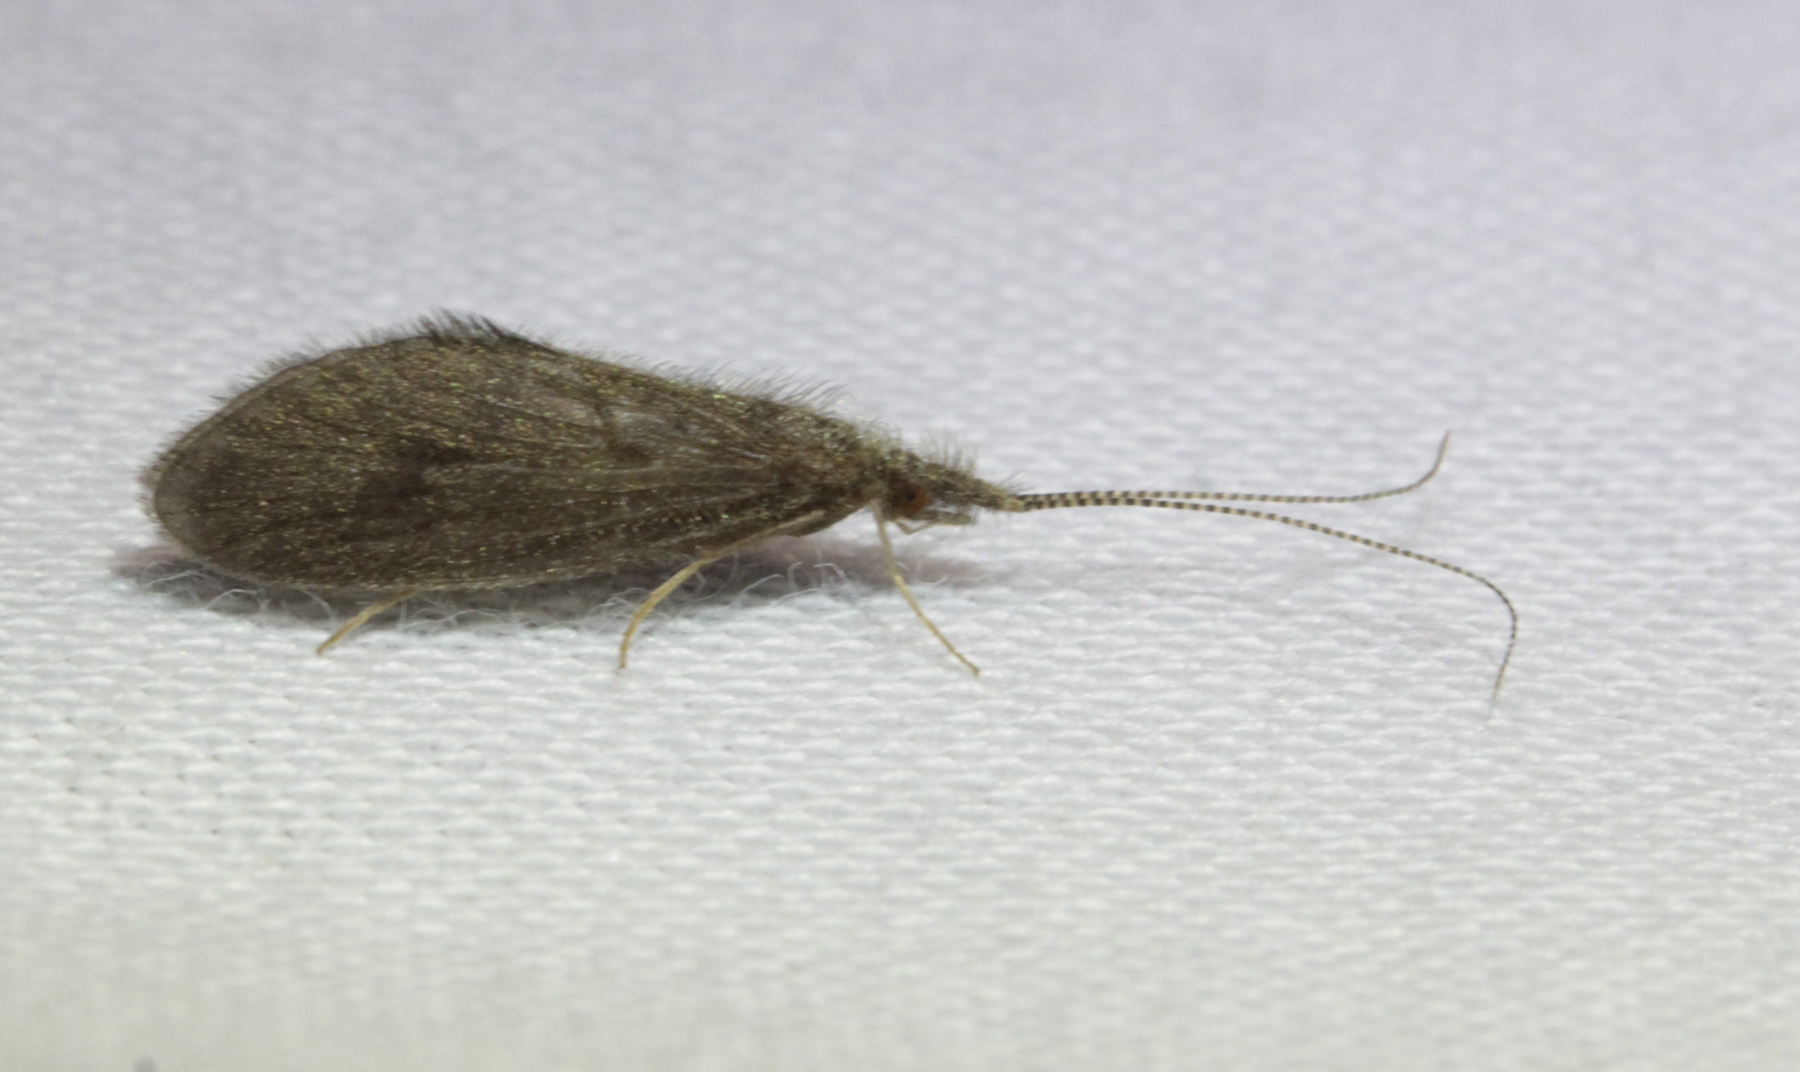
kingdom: Animalia
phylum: Arthropoda
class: Insecta
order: Trichoptera
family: Lepidostomatidae
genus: Lepidostoma
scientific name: Lepidostoma hirtum
